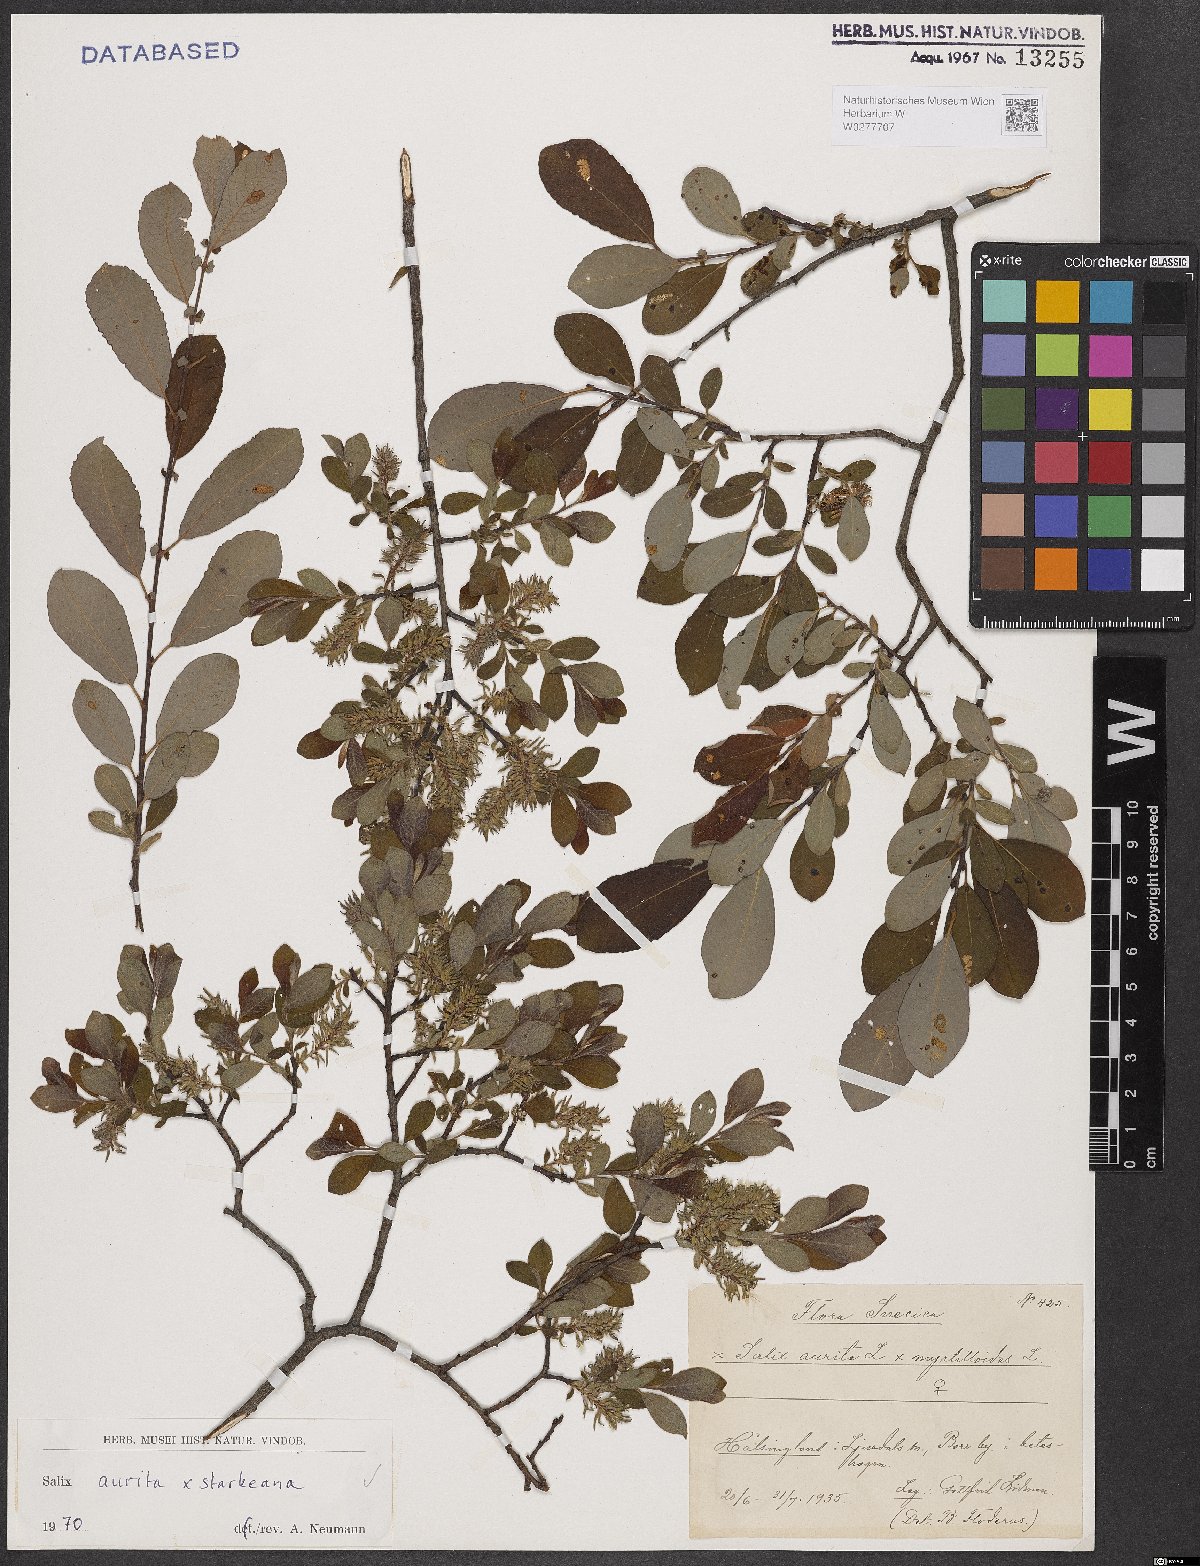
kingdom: Plantae
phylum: Tracheophyta
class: Magnoliopsida
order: Malpighiales
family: Salicaceae
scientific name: Salicaceae
